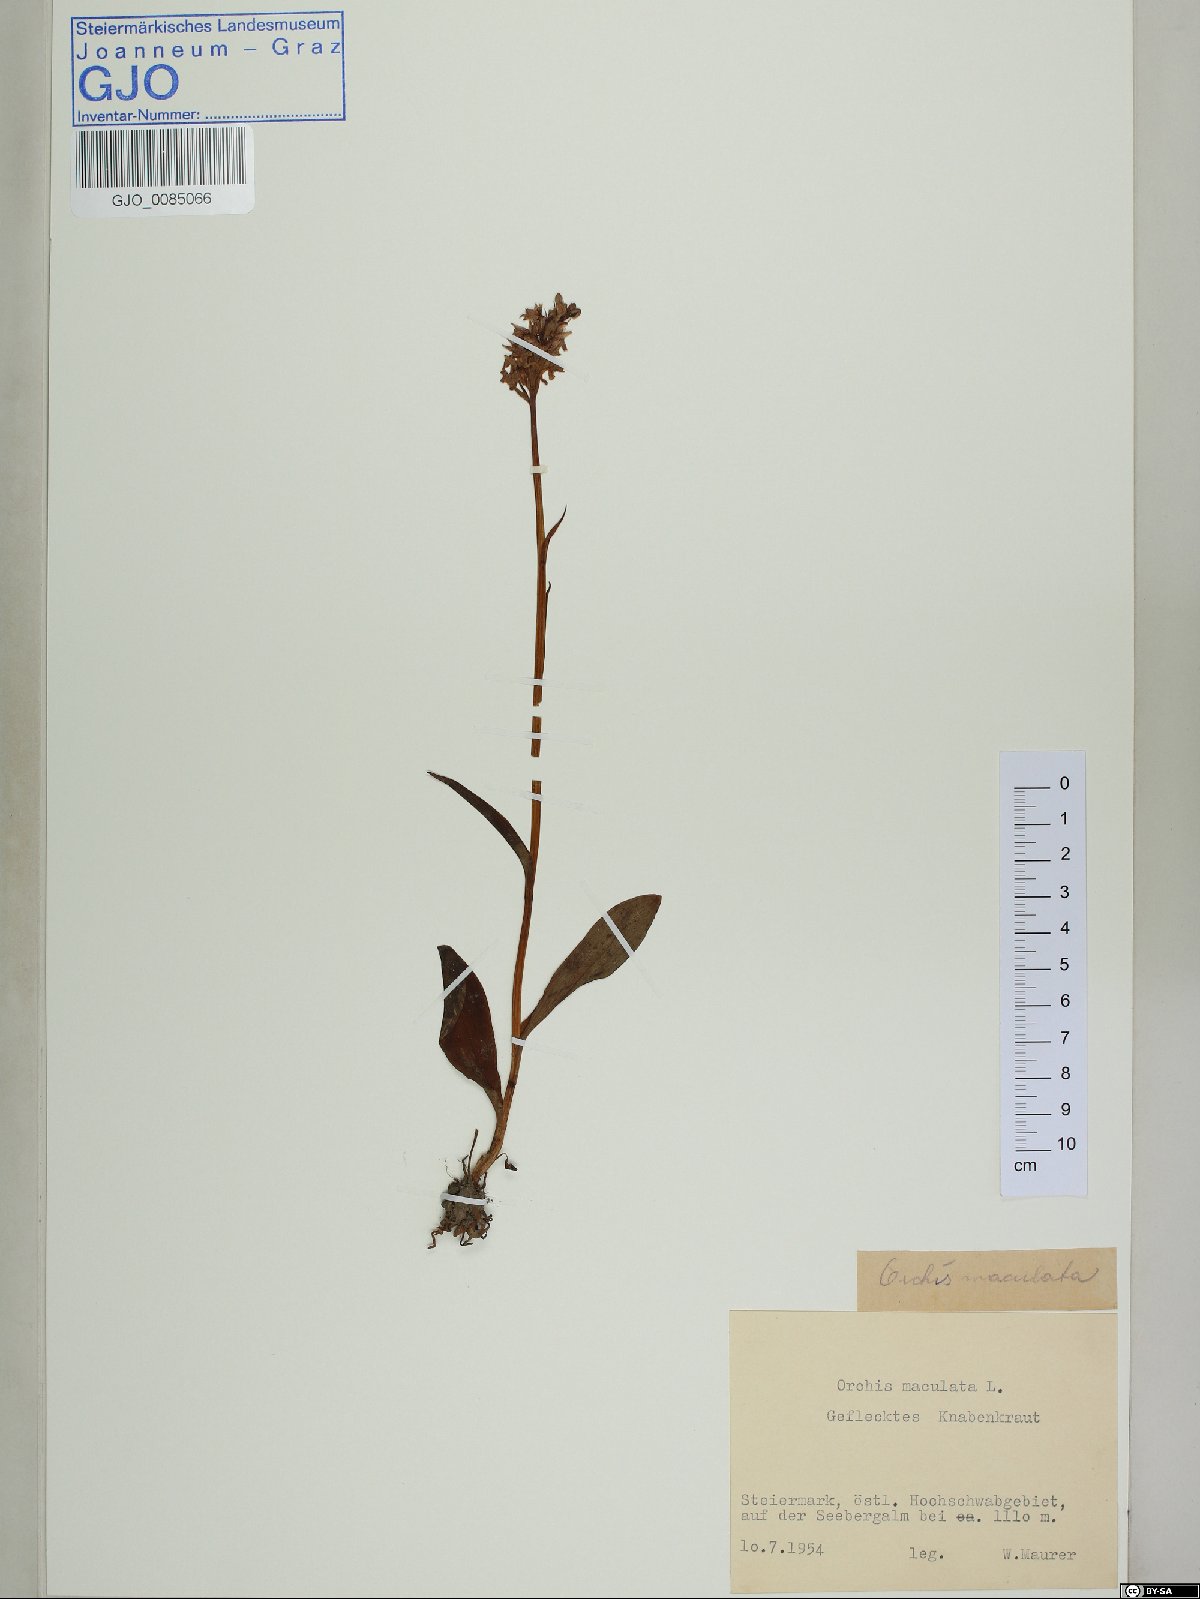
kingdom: Plantae
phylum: Tracheophyta
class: Liliopsida
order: Asparagales
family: Orchidaceae
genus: Dactylorhiza
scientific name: Dactylorhiza maculata
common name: Heath spotted-orchid
